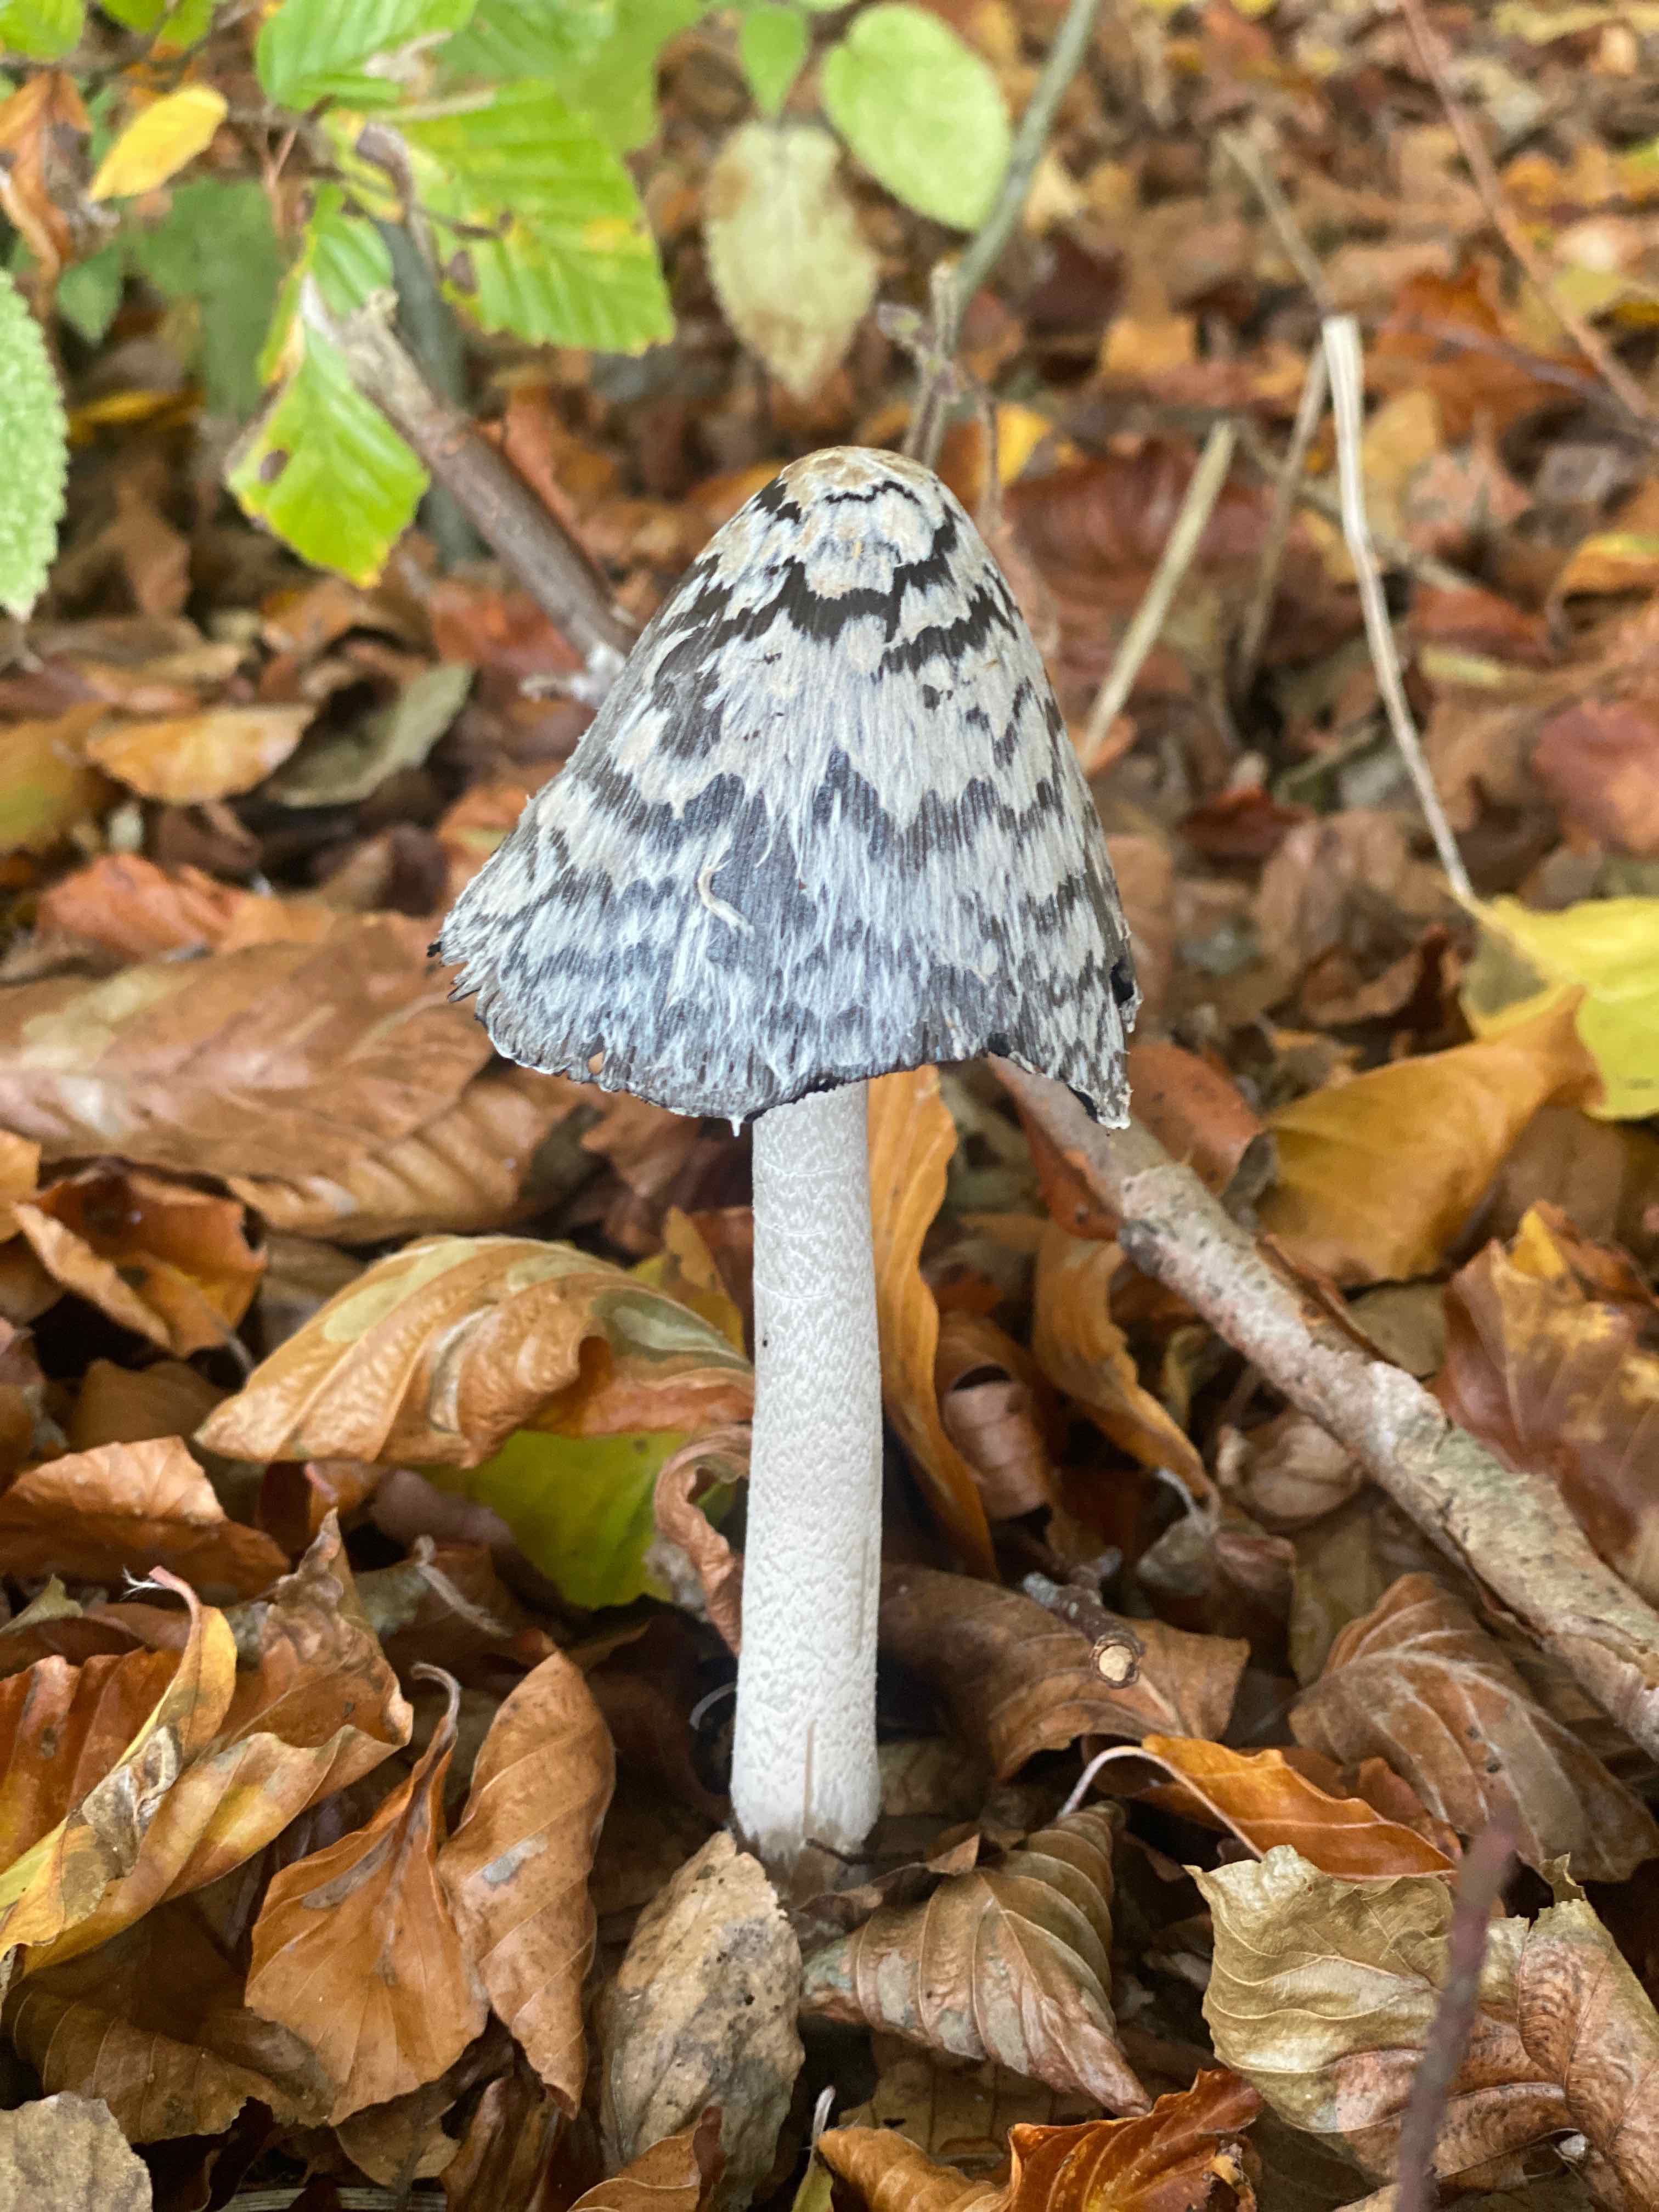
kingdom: Fungi
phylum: Basidiomycota
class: Agaricomycetes
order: Agaricales
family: Psathyrellaceae
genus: Coprinopsis
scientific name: Coprinopsis picacea
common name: skade-blækhat
